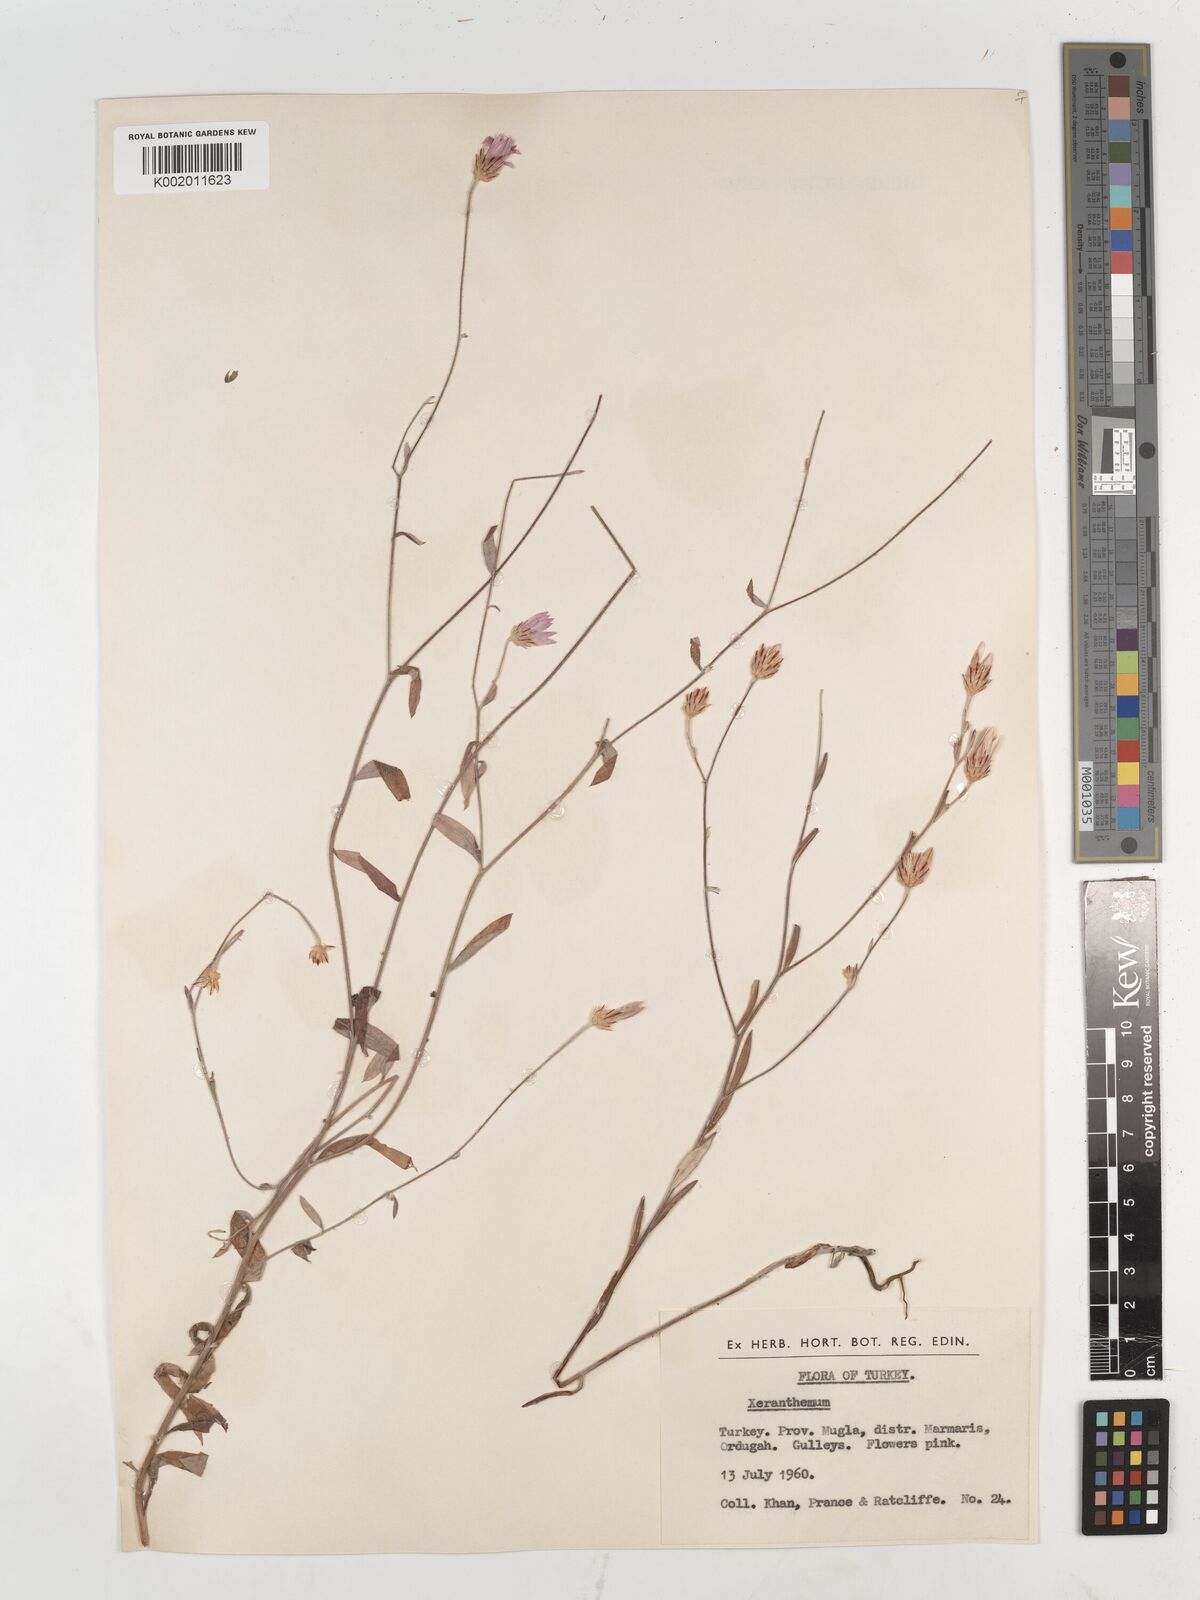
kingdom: Plantae
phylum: Tracheophyta
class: Magnoliopsida
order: Asterales
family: Asteraceae
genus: Xeranthemum
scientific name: Xeranthemum annuum
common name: Immortelle
